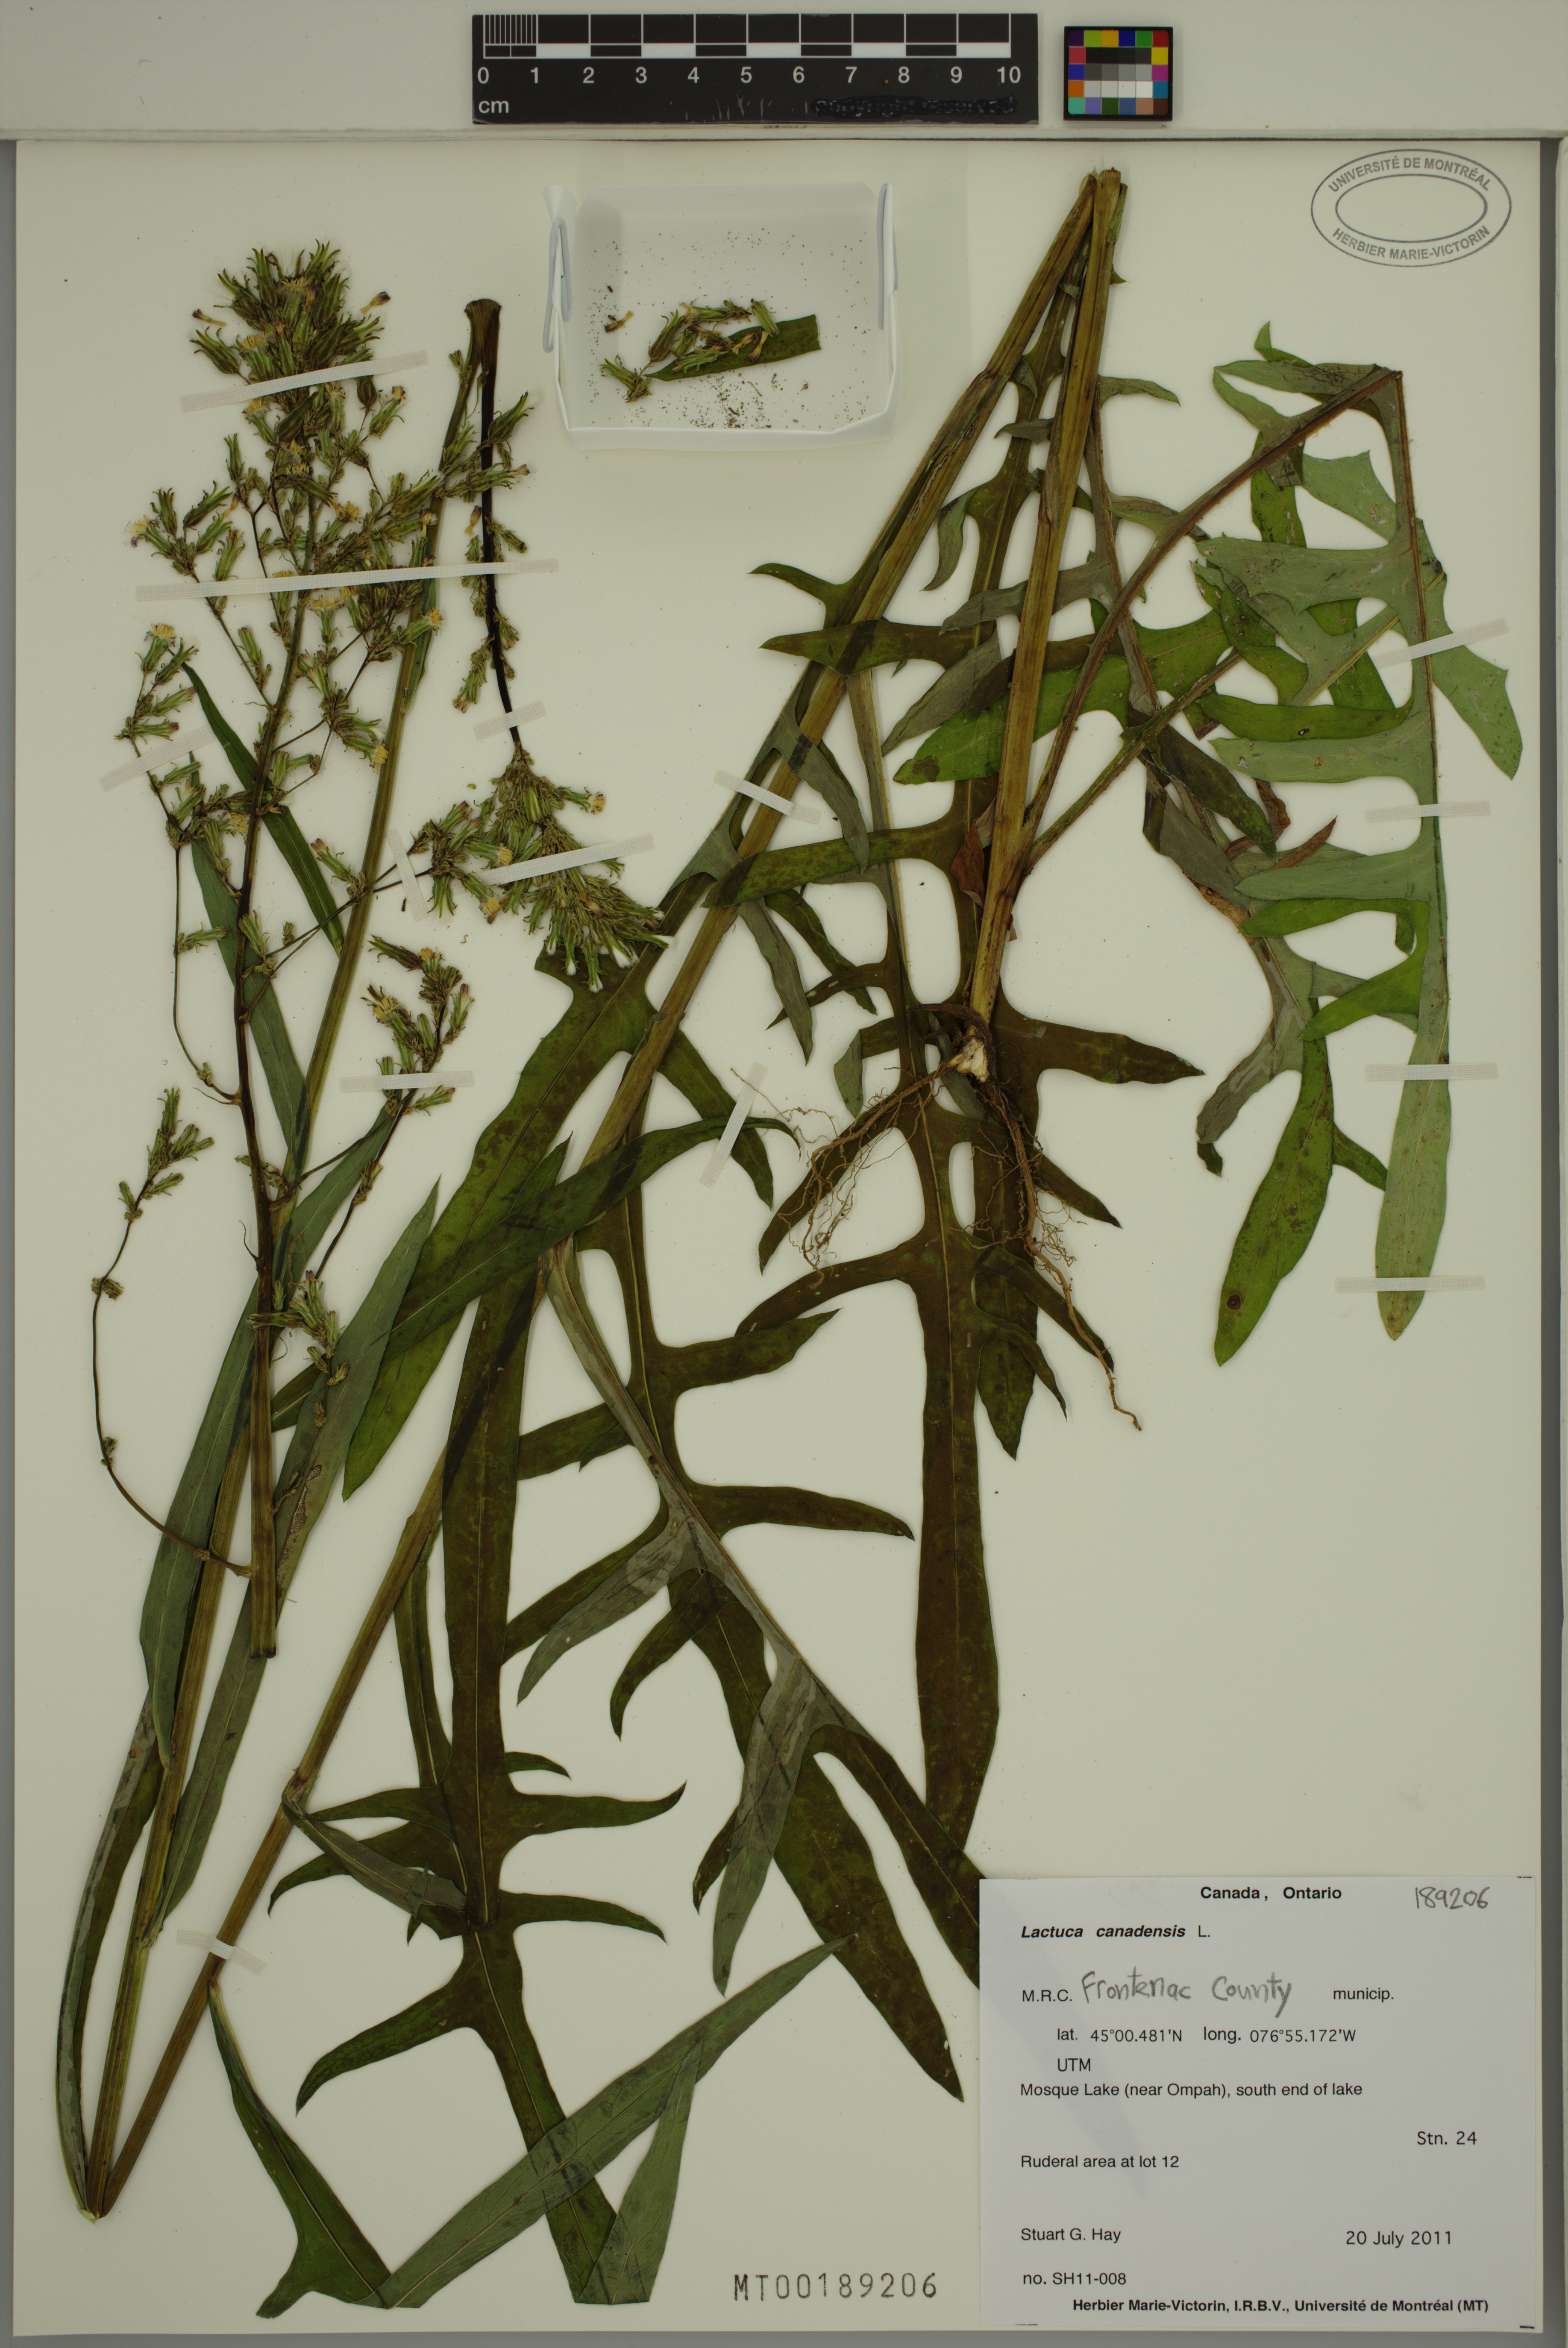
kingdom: Plantae
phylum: Tracheophyta
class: Magnoliopsida
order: Asterales
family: Asteraceae
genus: Lactuca
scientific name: Lactuca canadensis
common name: Canada lettuce
